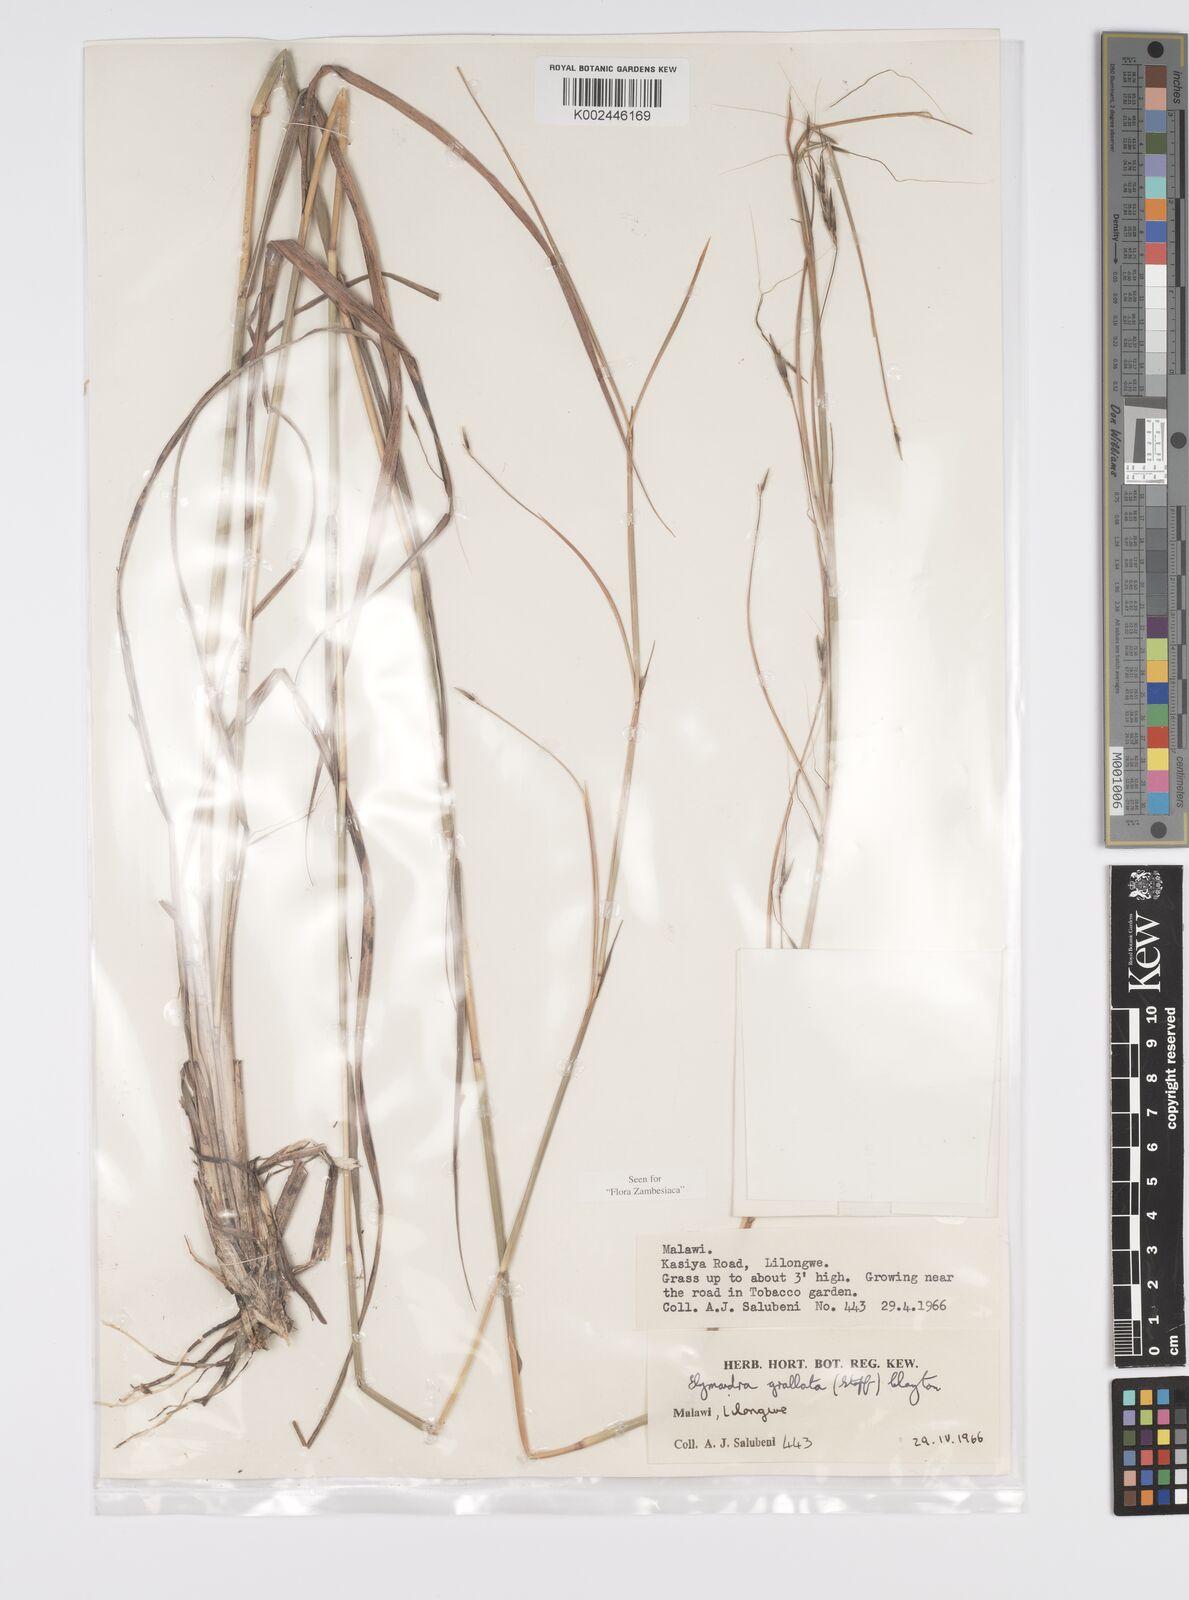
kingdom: Plantae
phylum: Tracheophyta
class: Liliopsida
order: Poales
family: Poaceae
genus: Elymandra
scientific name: Elymandra grallata
